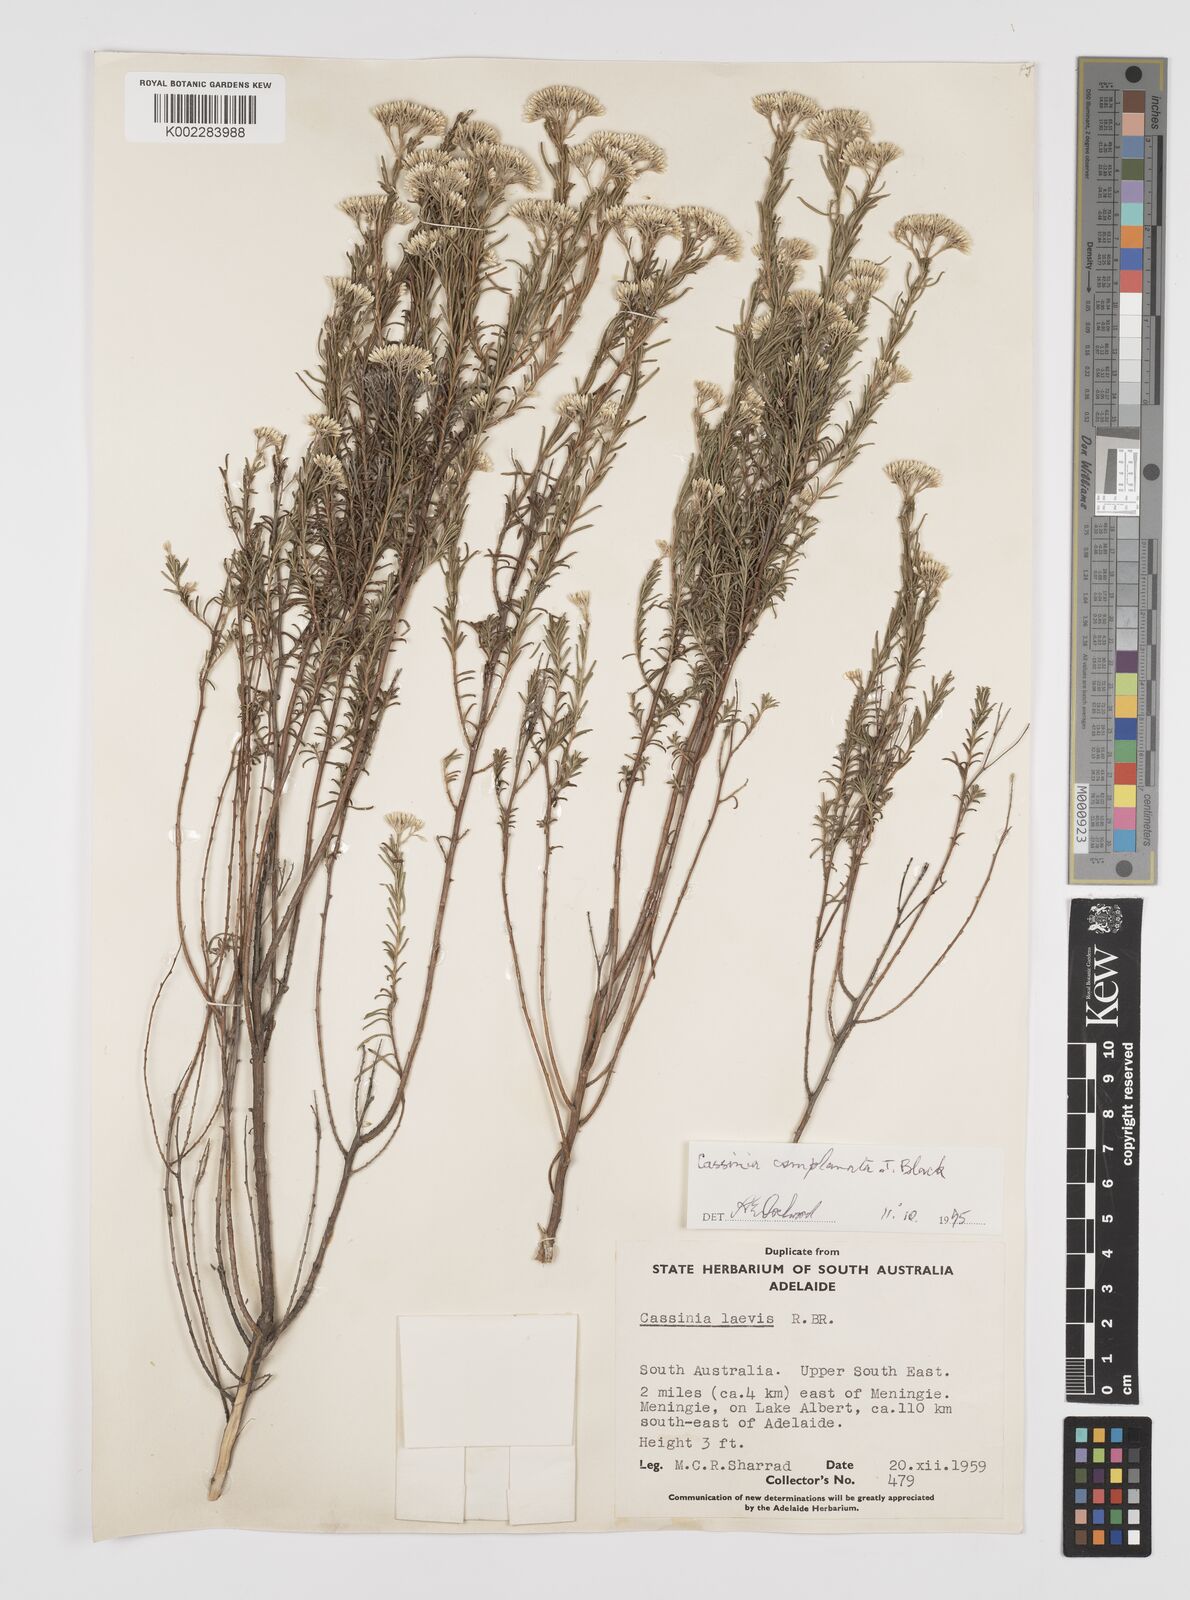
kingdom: Plantae
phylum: Tracheophyta
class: Magnoliopsida
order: Asterales
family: Asteraceae
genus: Cassinia
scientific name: Cassinia complanata
